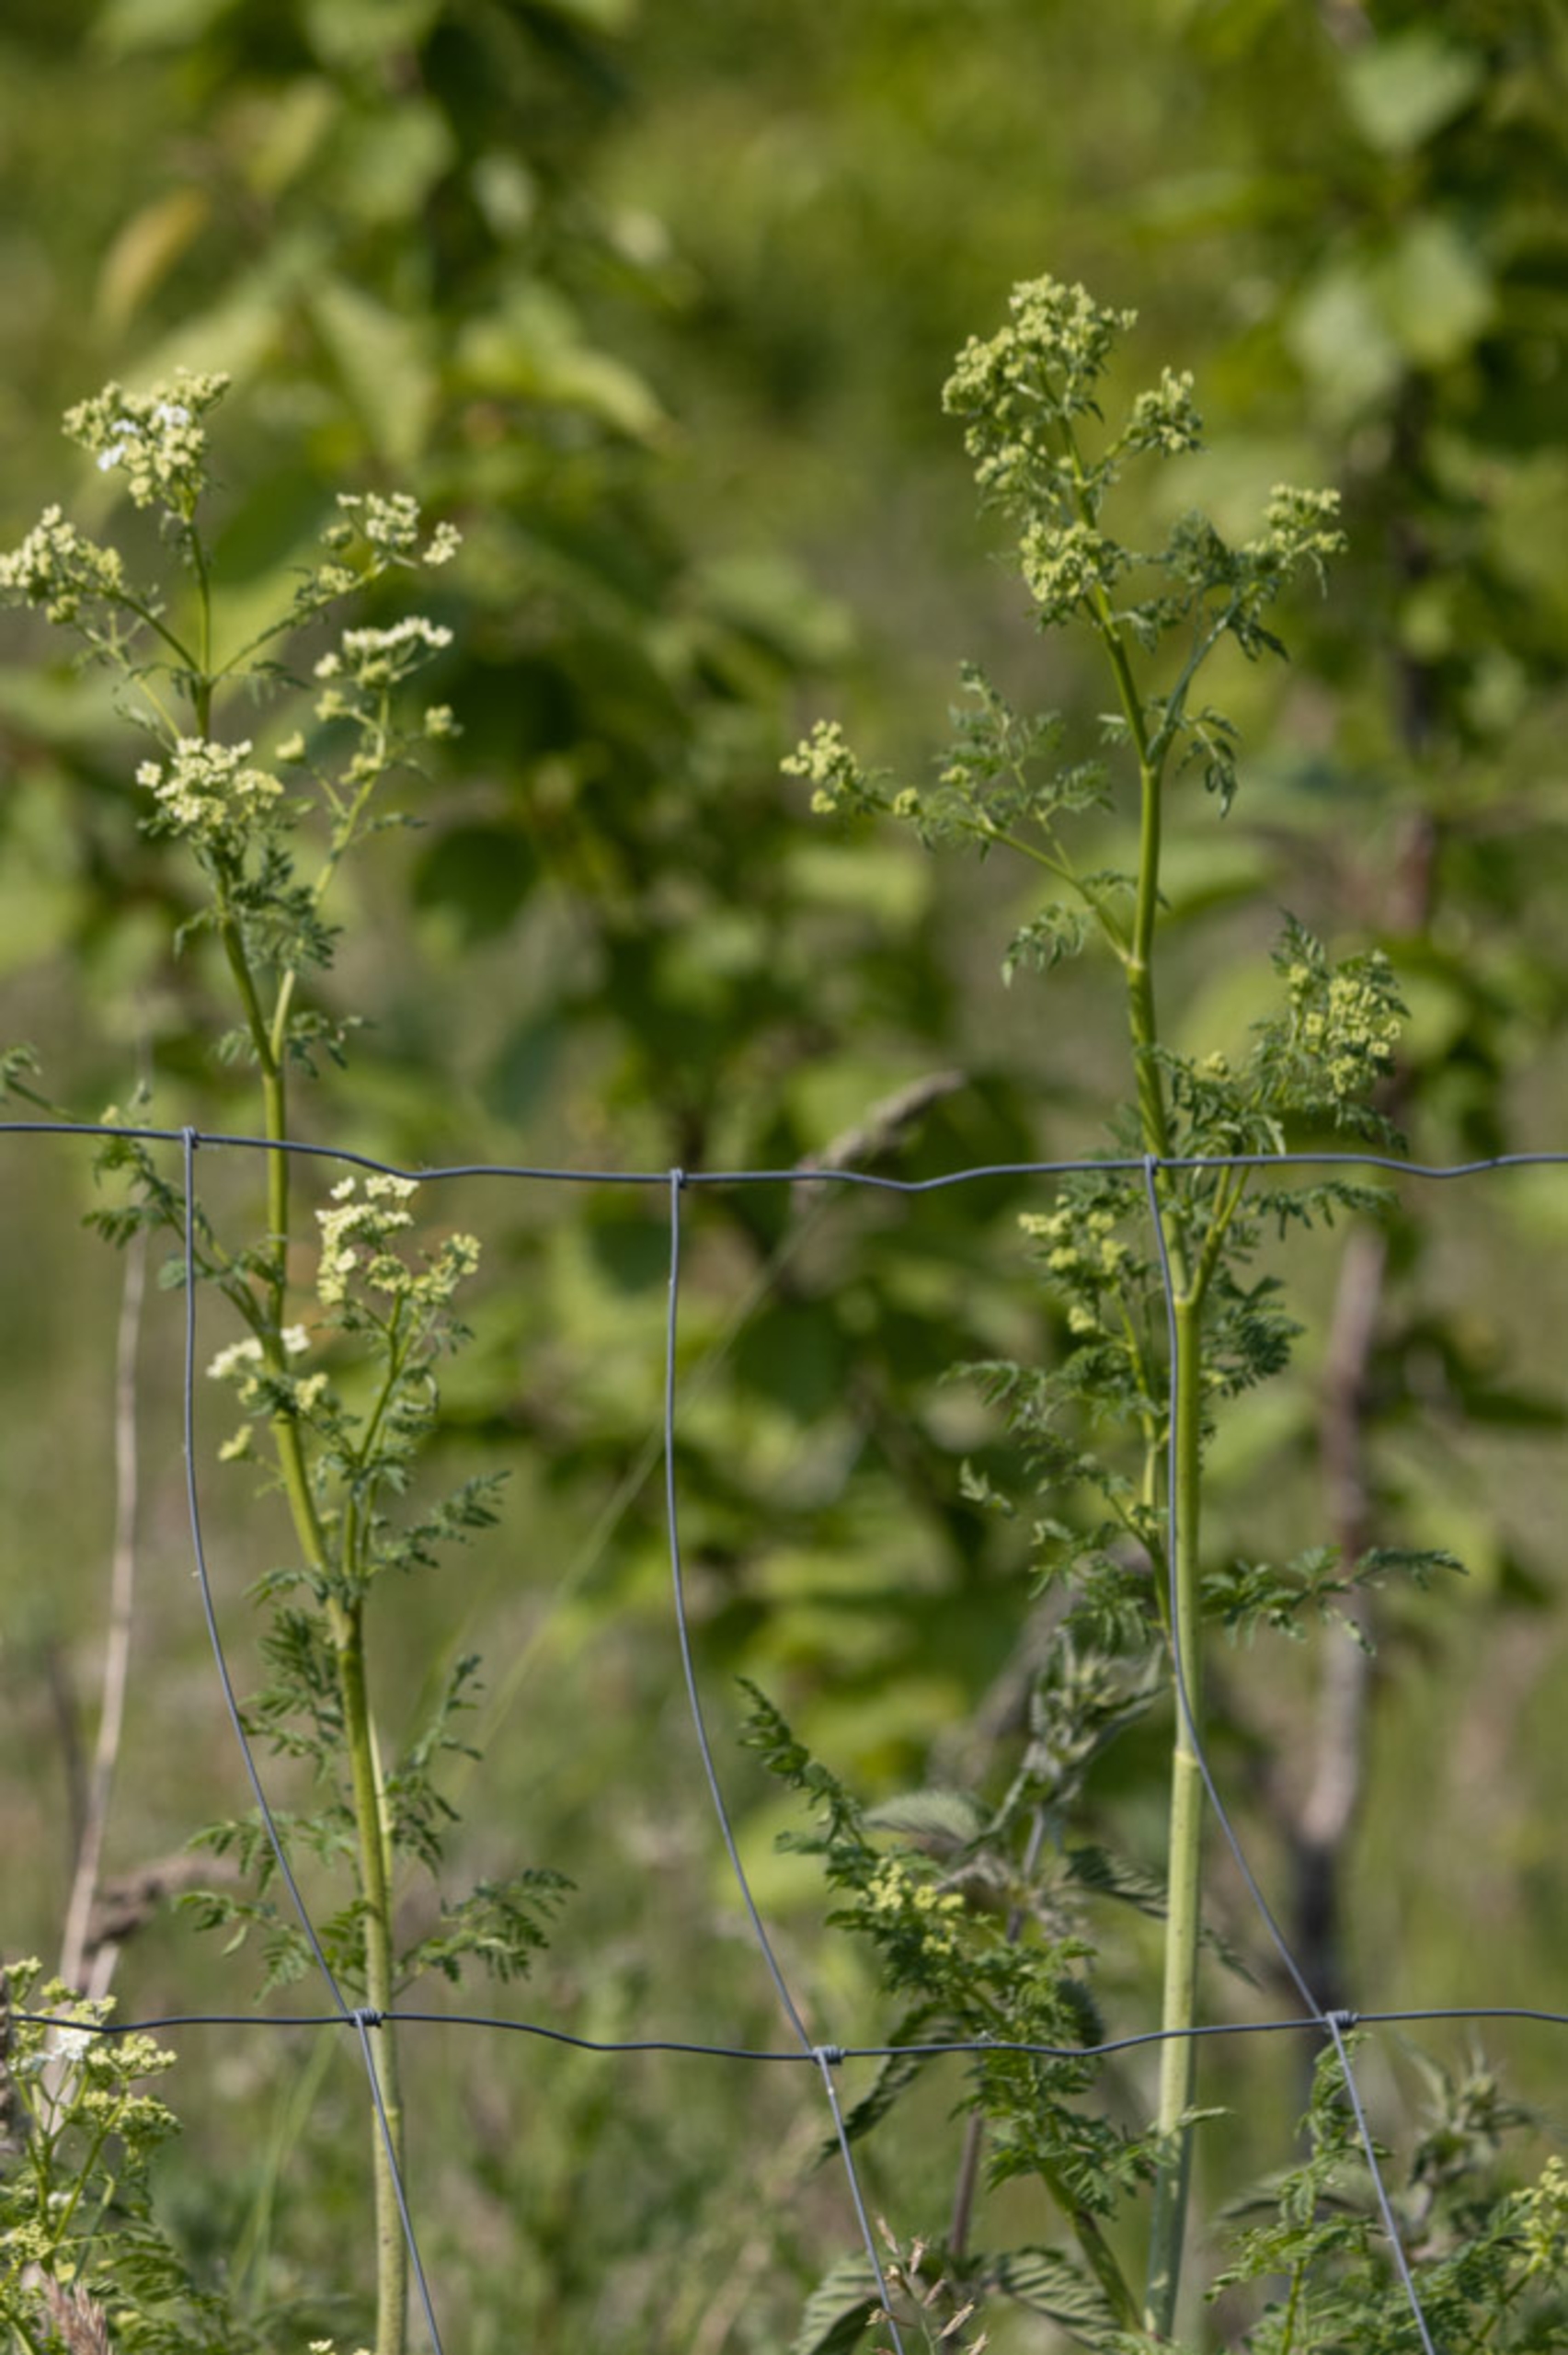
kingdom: Plantae
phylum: Tracheophyta
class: Magnoliopsida
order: Apiales
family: Apiaceae
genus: Conium
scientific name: Conium maculatum
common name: Skarntyde
